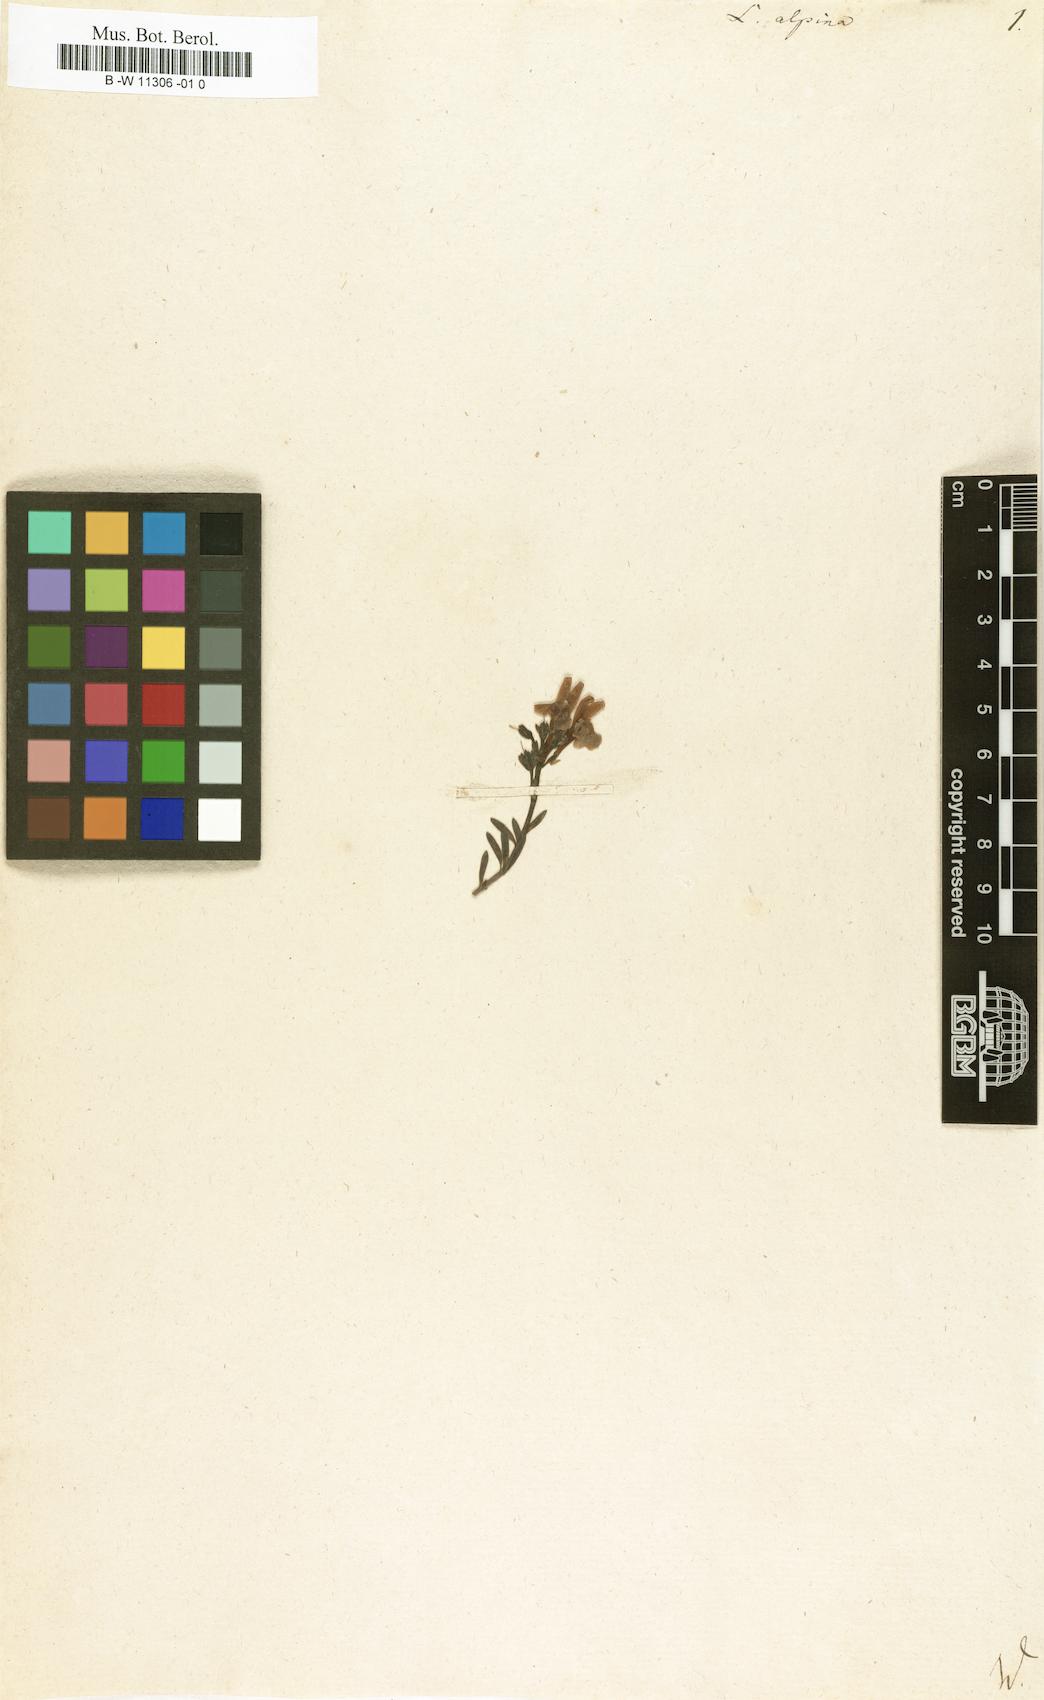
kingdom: Plantae
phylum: Tracheophyta
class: Magnoliopsida
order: Lamiales
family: Plantaginaceae
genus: Linaria
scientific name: Linaria alpina
